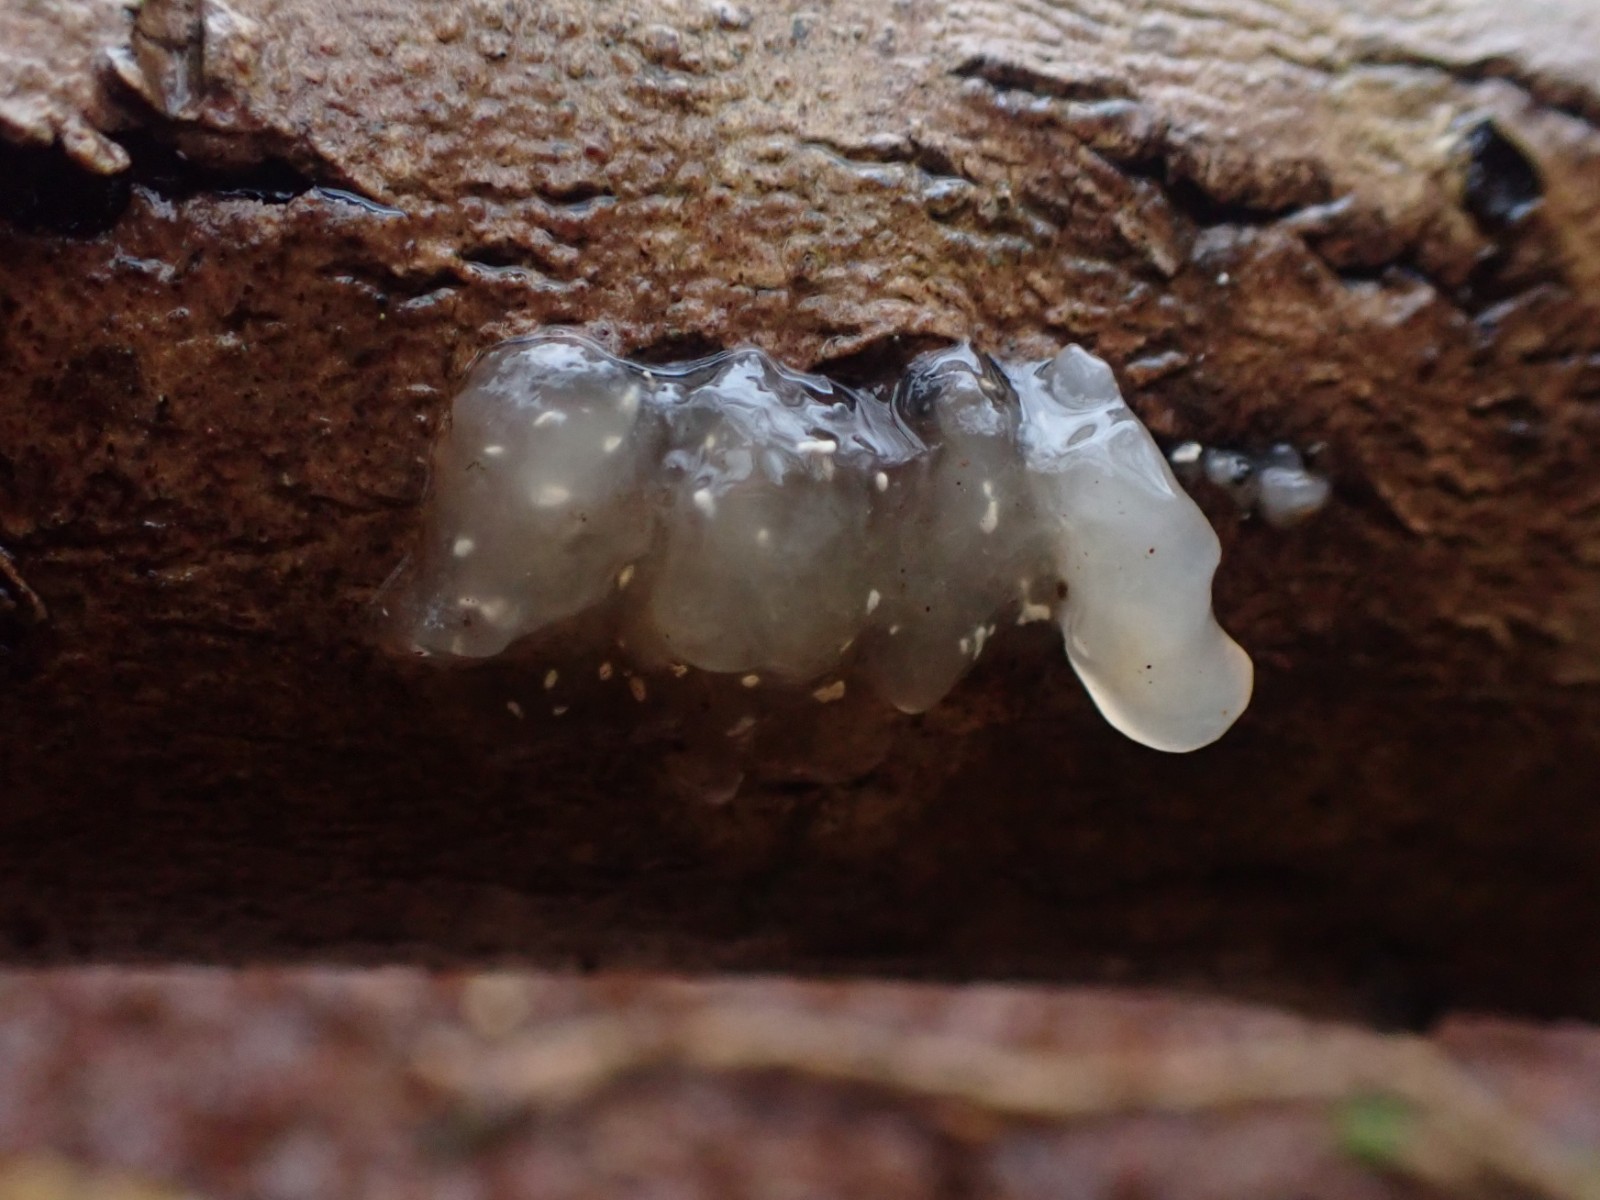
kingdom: Fungi
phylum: Basidiomycota
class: Agaricomycetes
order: Auriculariales
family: Hyaloriaceae
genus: Myxarium
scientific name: Myxarium nucleatum
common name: klar bævretop
